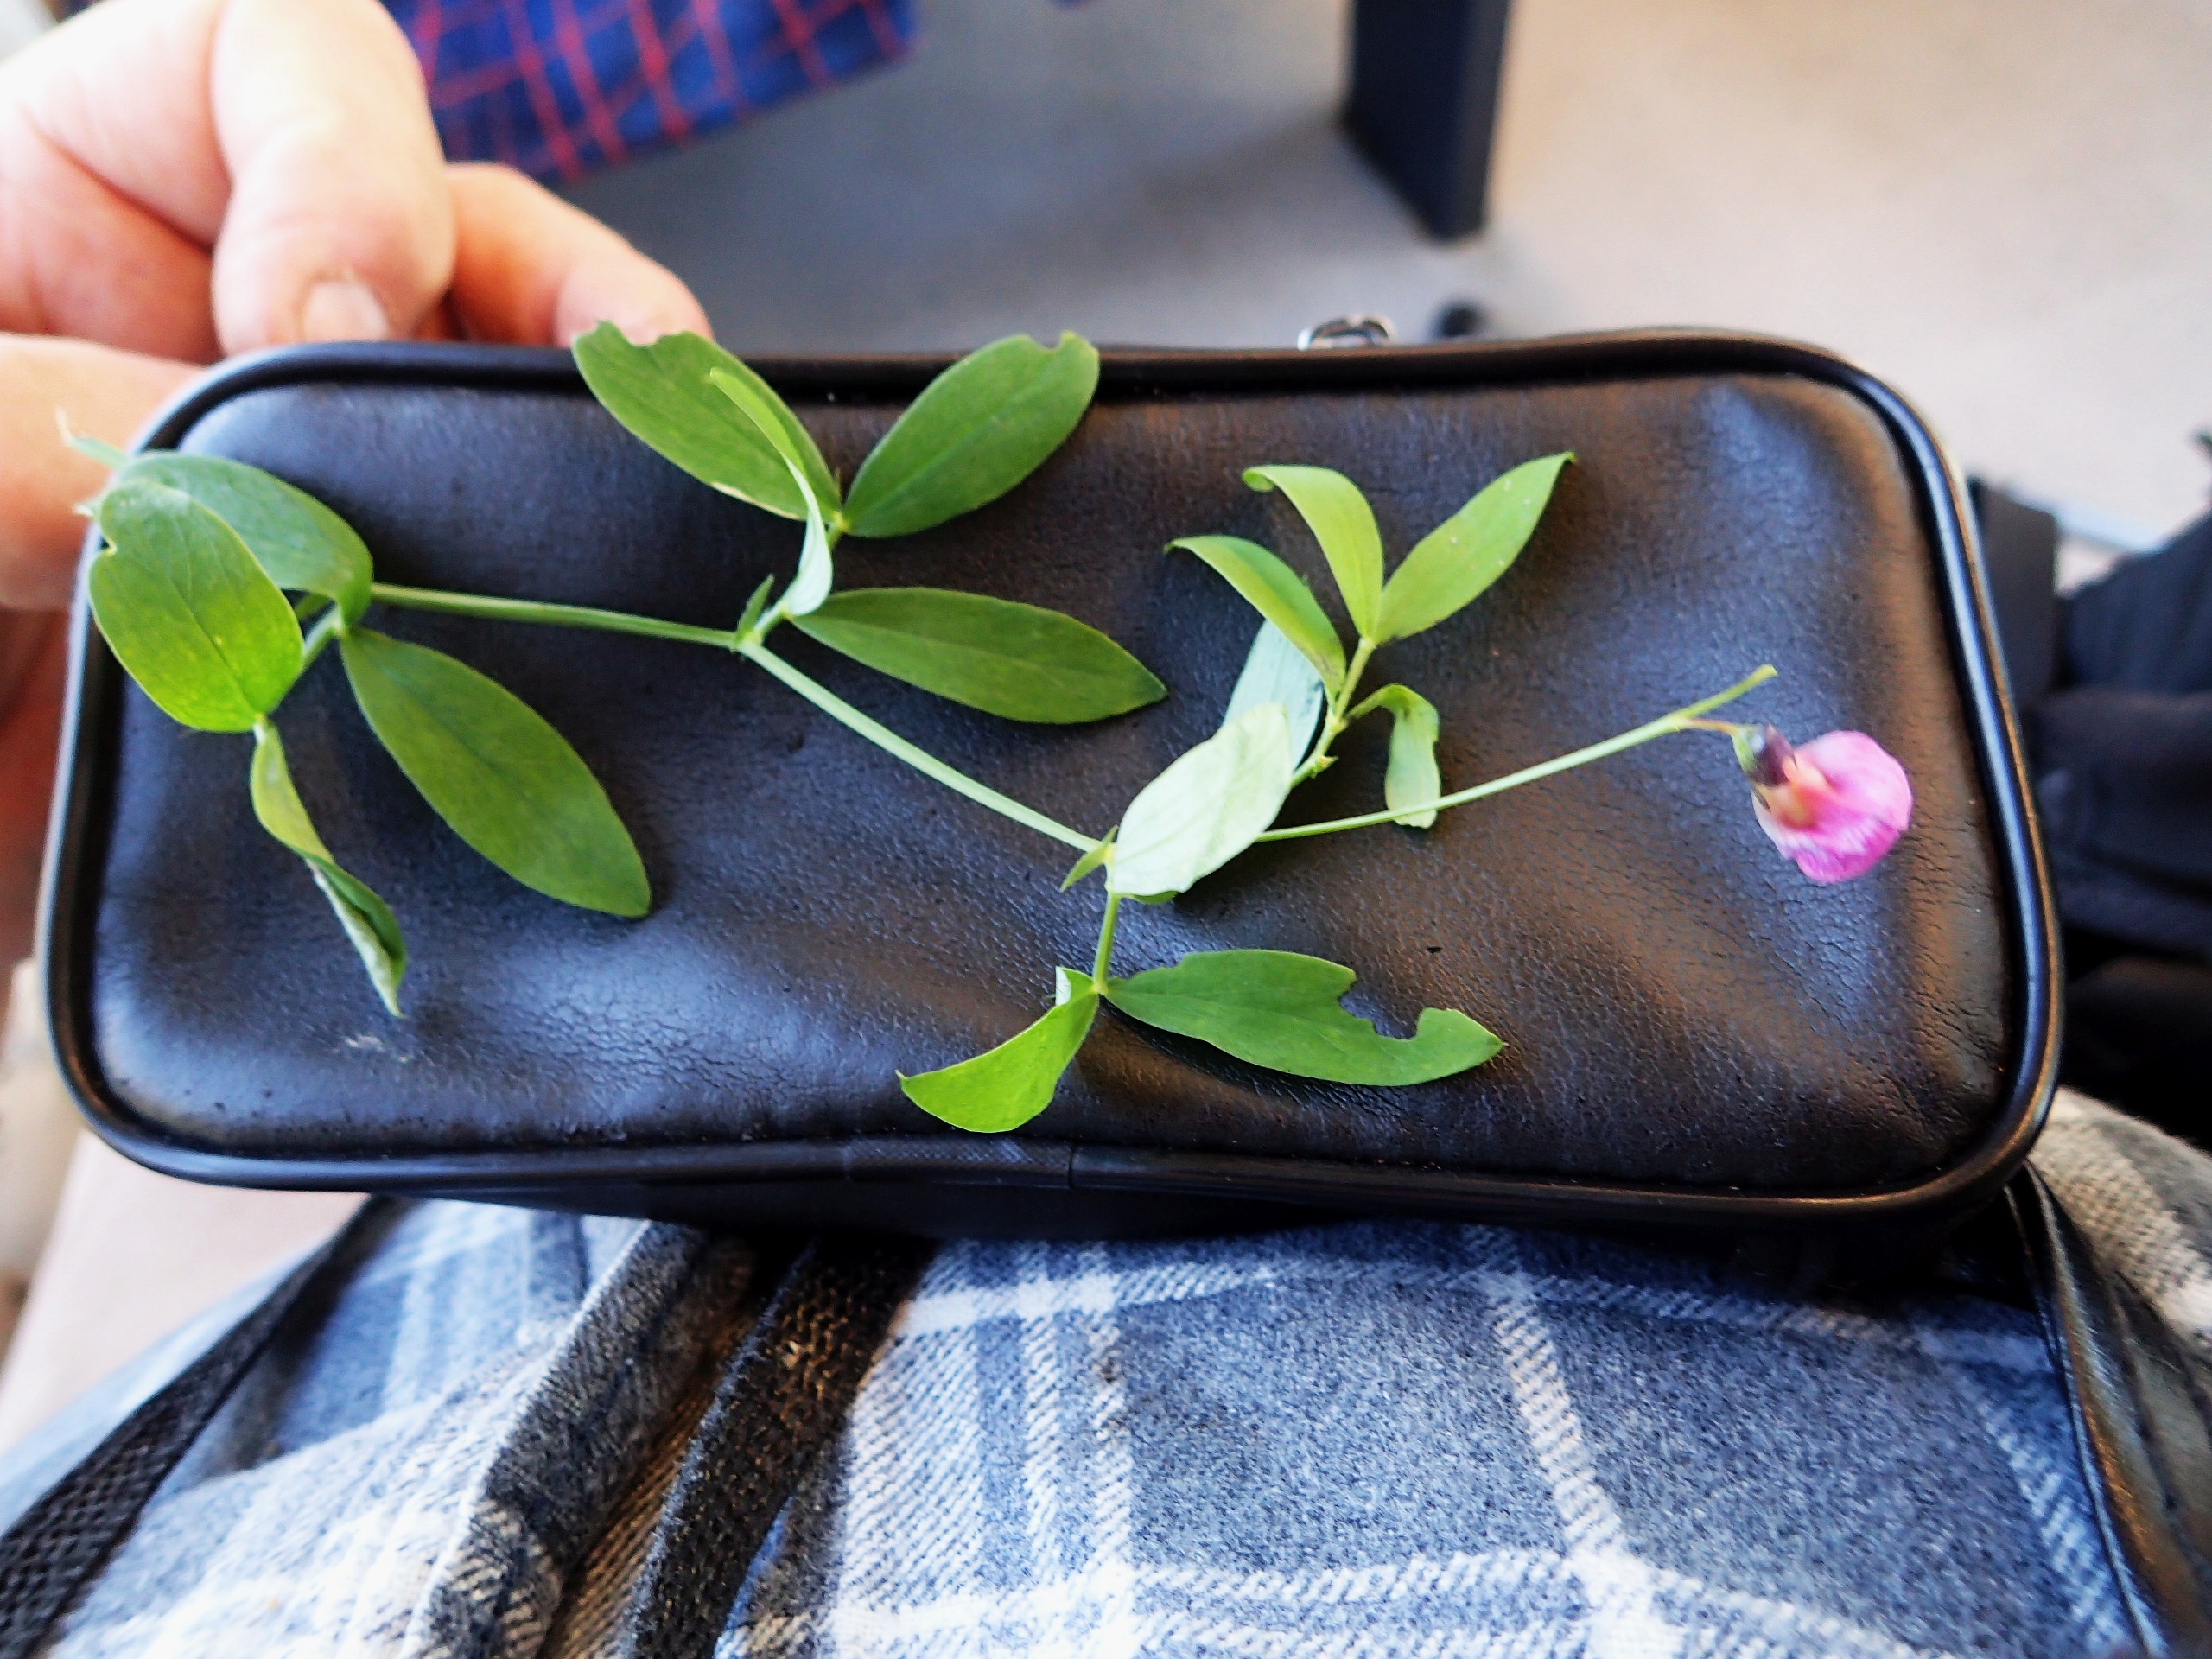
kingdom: Plantae
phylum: Tracheophyta
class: Magnoliopsida
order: Fabales
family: Fabaceae
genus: Lathyrus
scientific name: Lathyrus linifolius
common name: Krat-fladbælg
